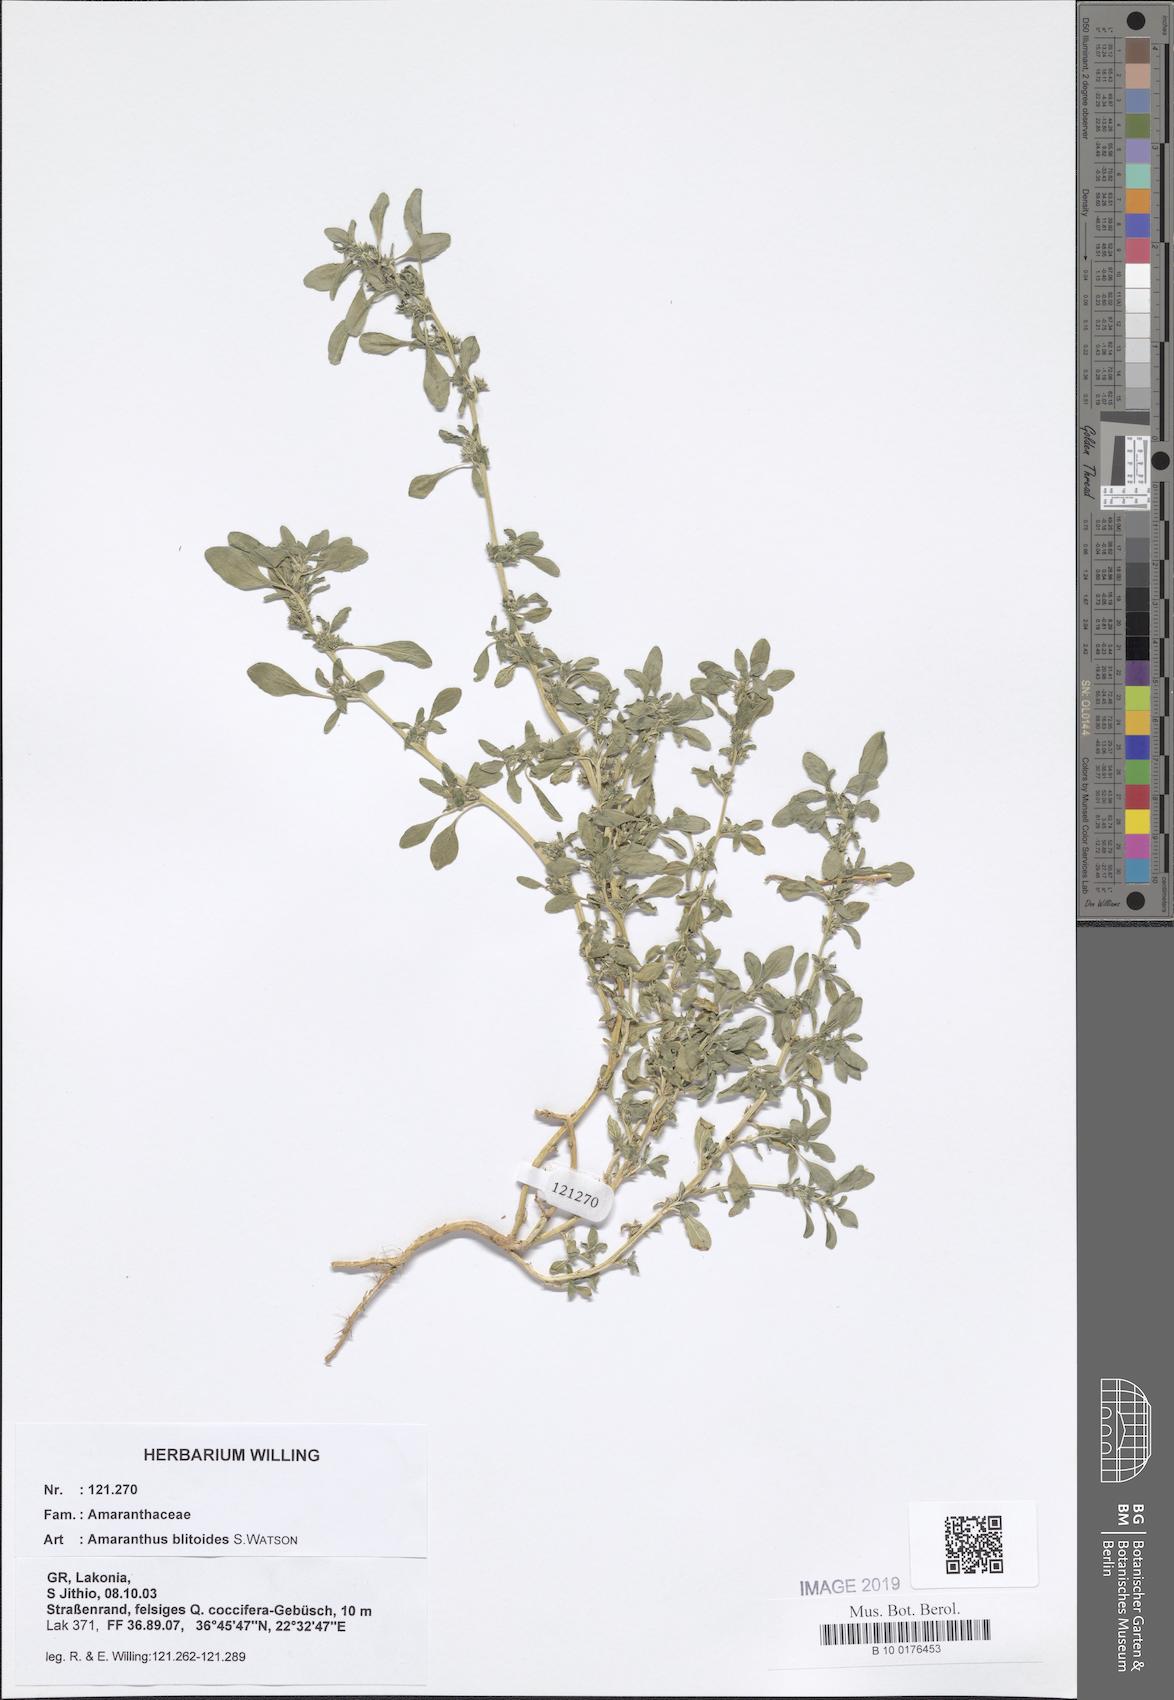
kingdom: Plantae
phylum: Tracheophyta
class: Magnoliopsida
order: Caryophyllales
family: Amaranthaceae
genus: Amaranthus
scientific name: Amaranthus blitoides
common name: Prostrate pigweed
